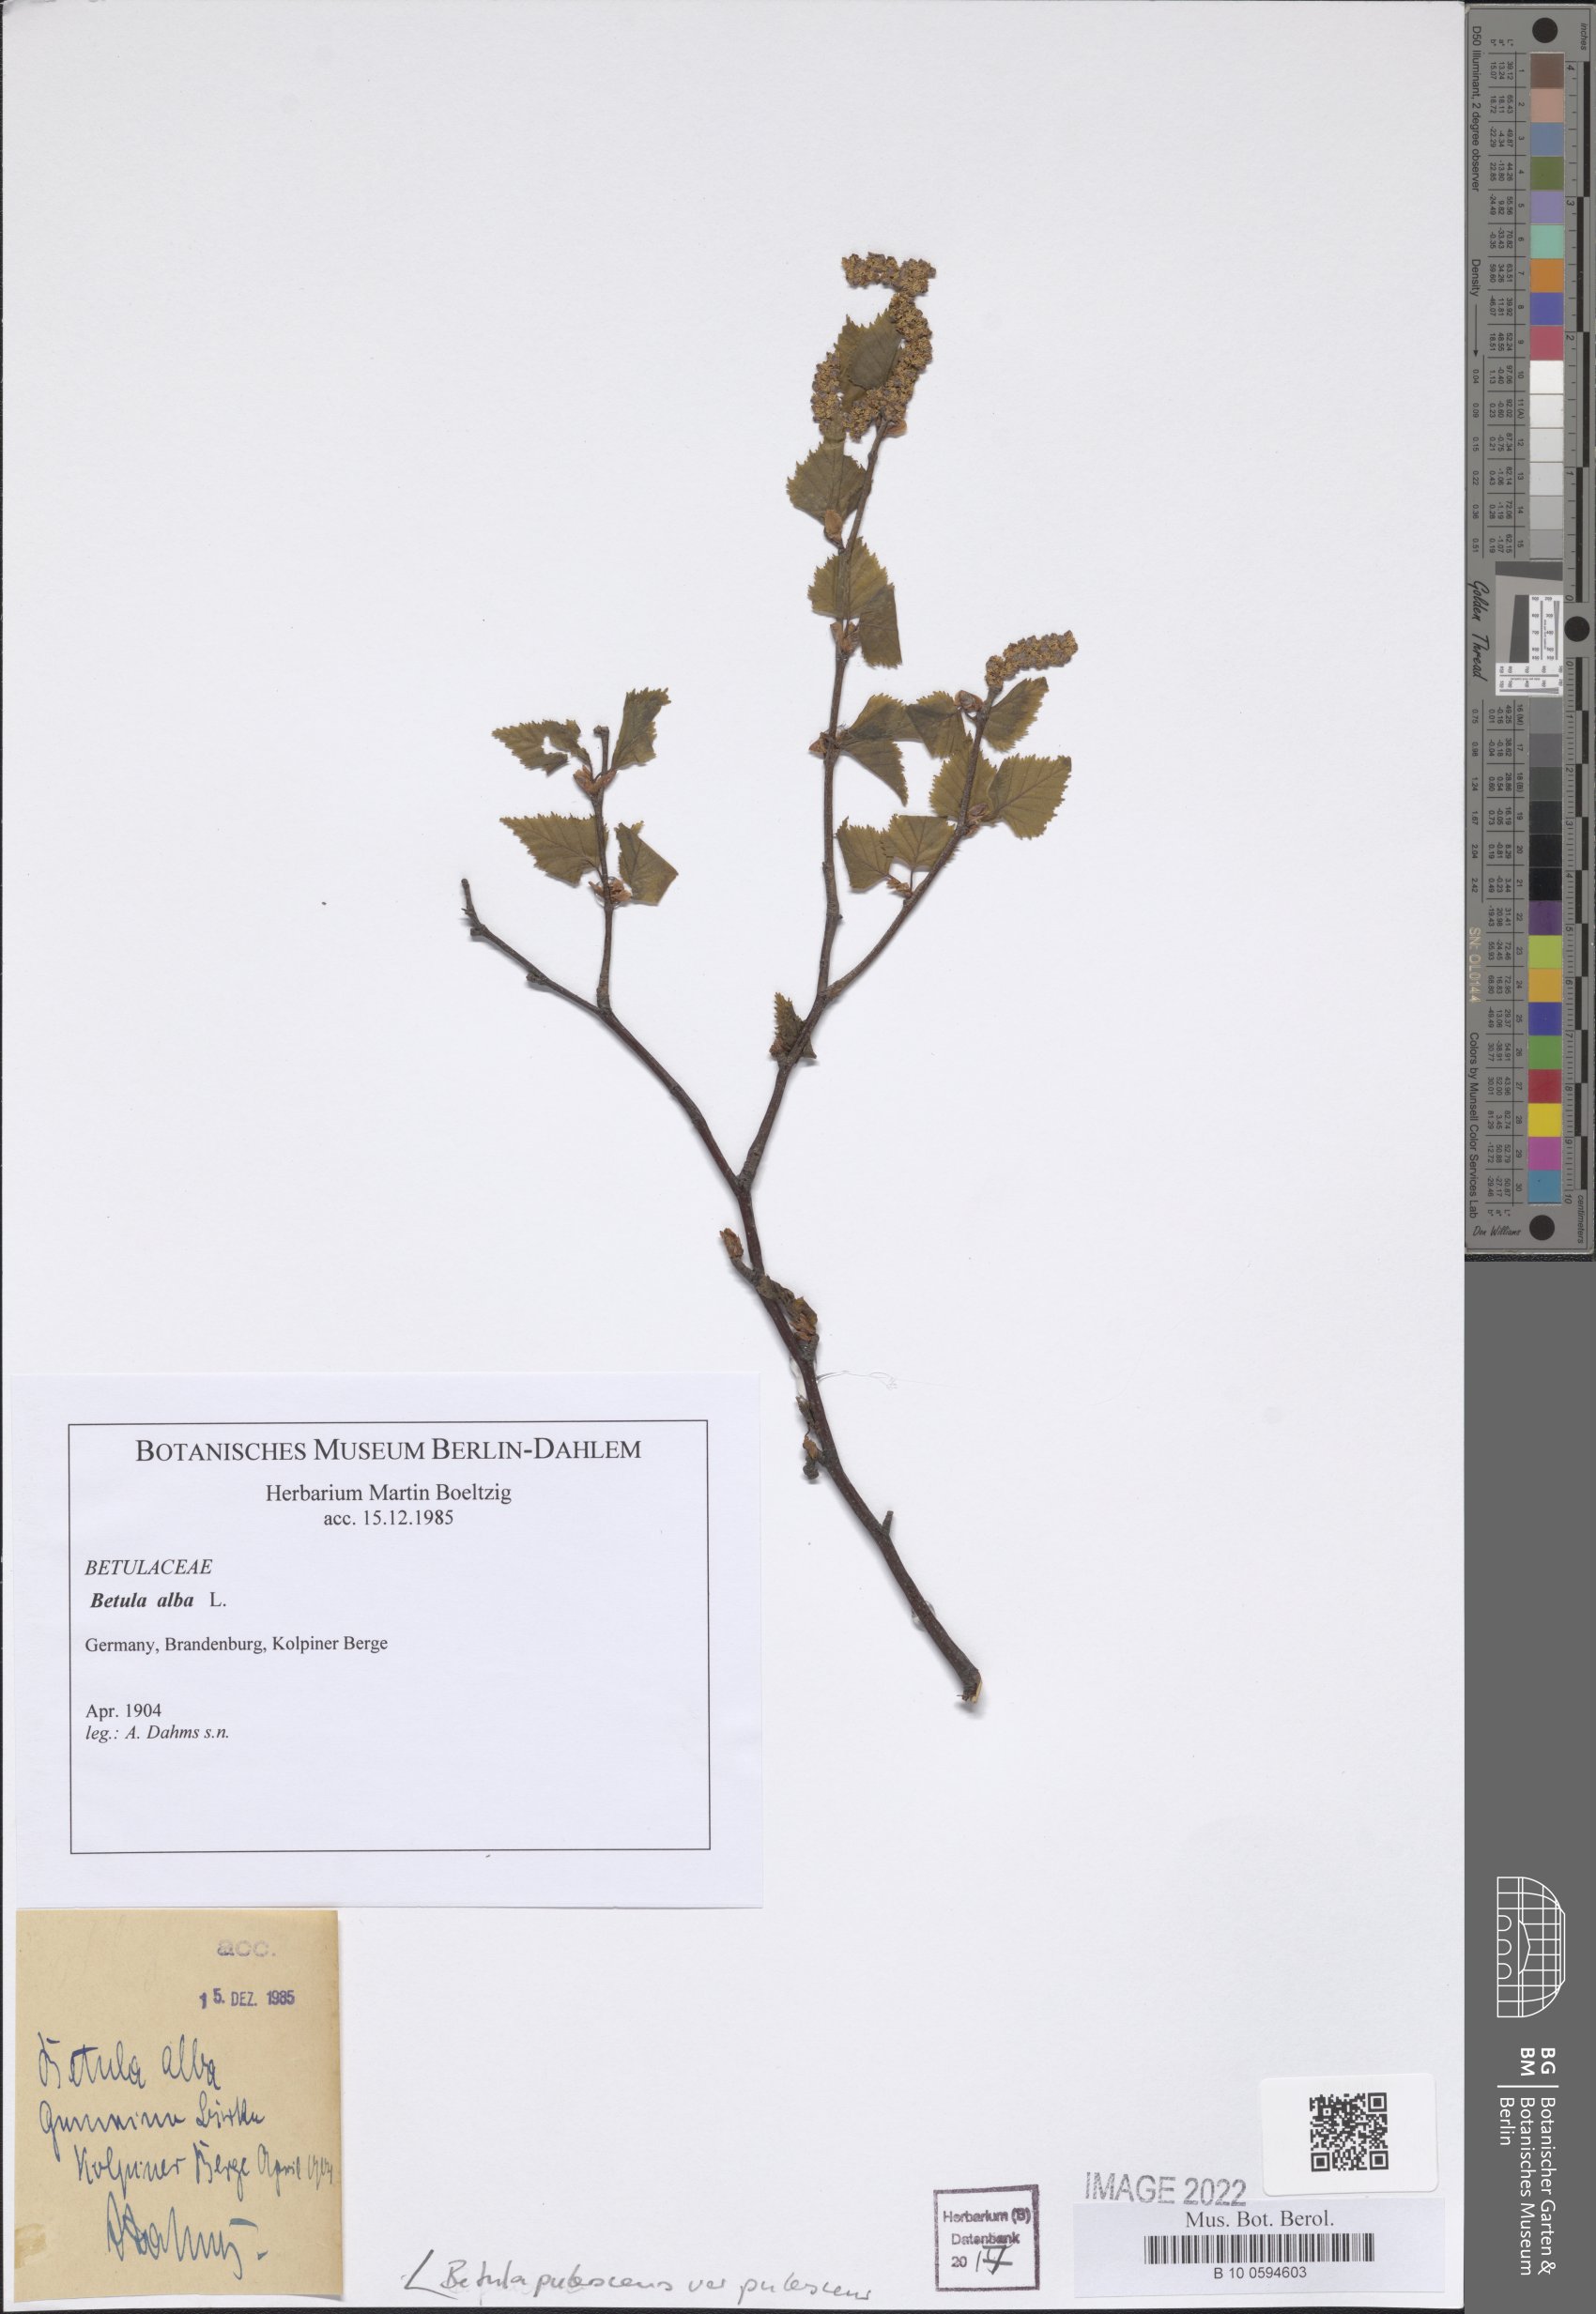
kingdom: Plantae
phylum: Tracheophyta
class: Magnoliopsida
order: Fagales
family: Betulaceae
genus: Betula
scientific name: Betula pubescens
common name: Downy birch
